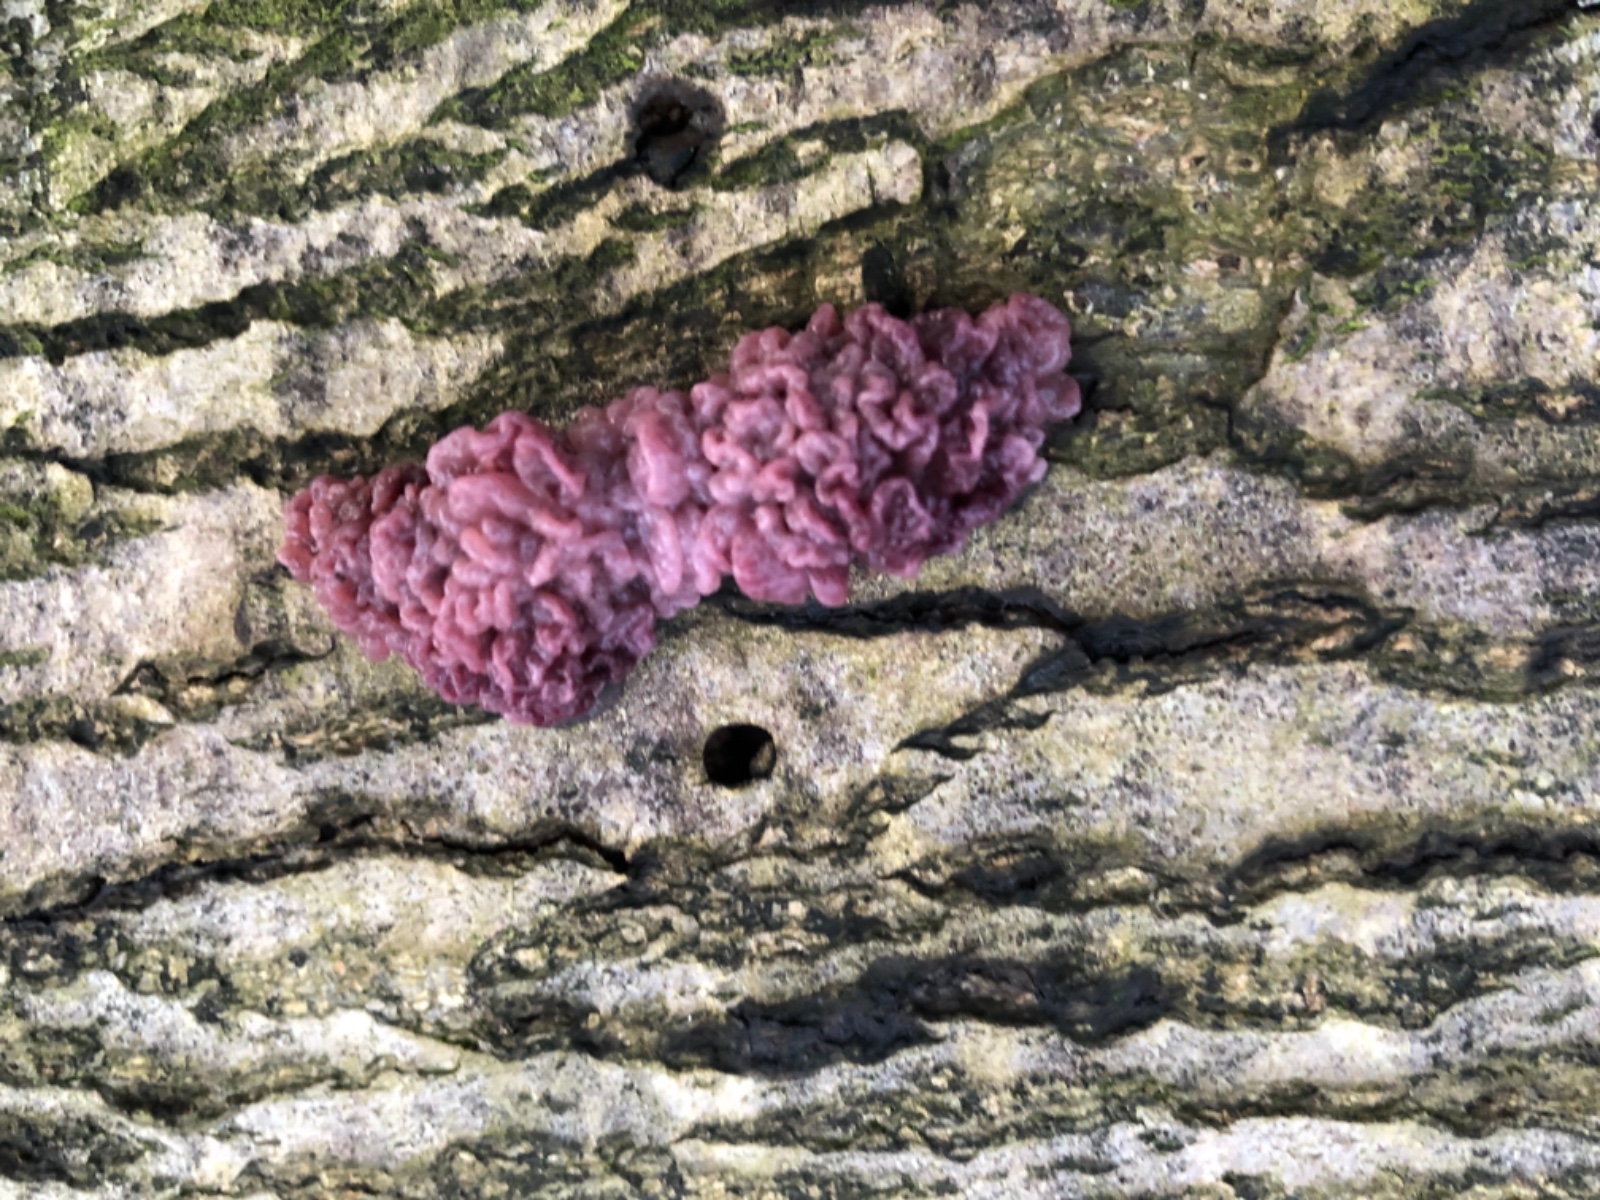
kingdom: Fungi
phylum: Ascomycota
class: Leotiomycetes
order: Helotiales
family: Gelatinodiscaceae
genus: Ascocoryne
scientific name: Ascocoryne sarcoides
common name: rødlilla sejskive
